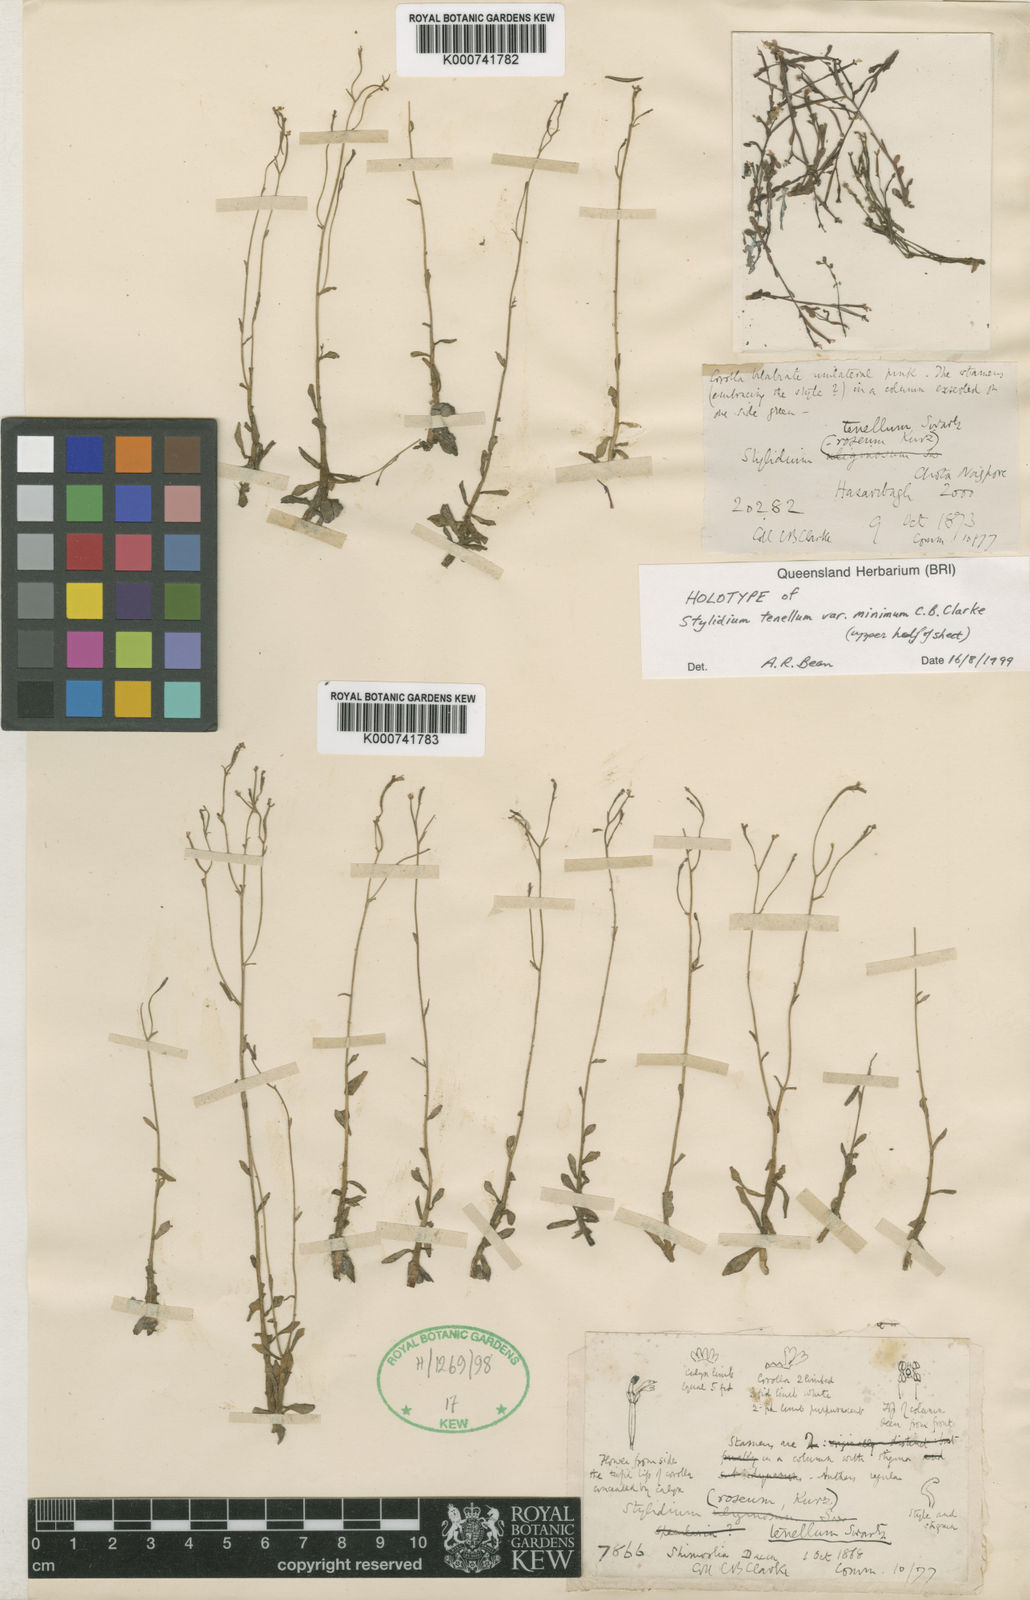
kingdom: Plantae
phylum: Tracheophyta
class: Magnoliopsida
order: Asterales
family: Stylidiaceae
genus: Stylidium
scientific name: Stylidium
